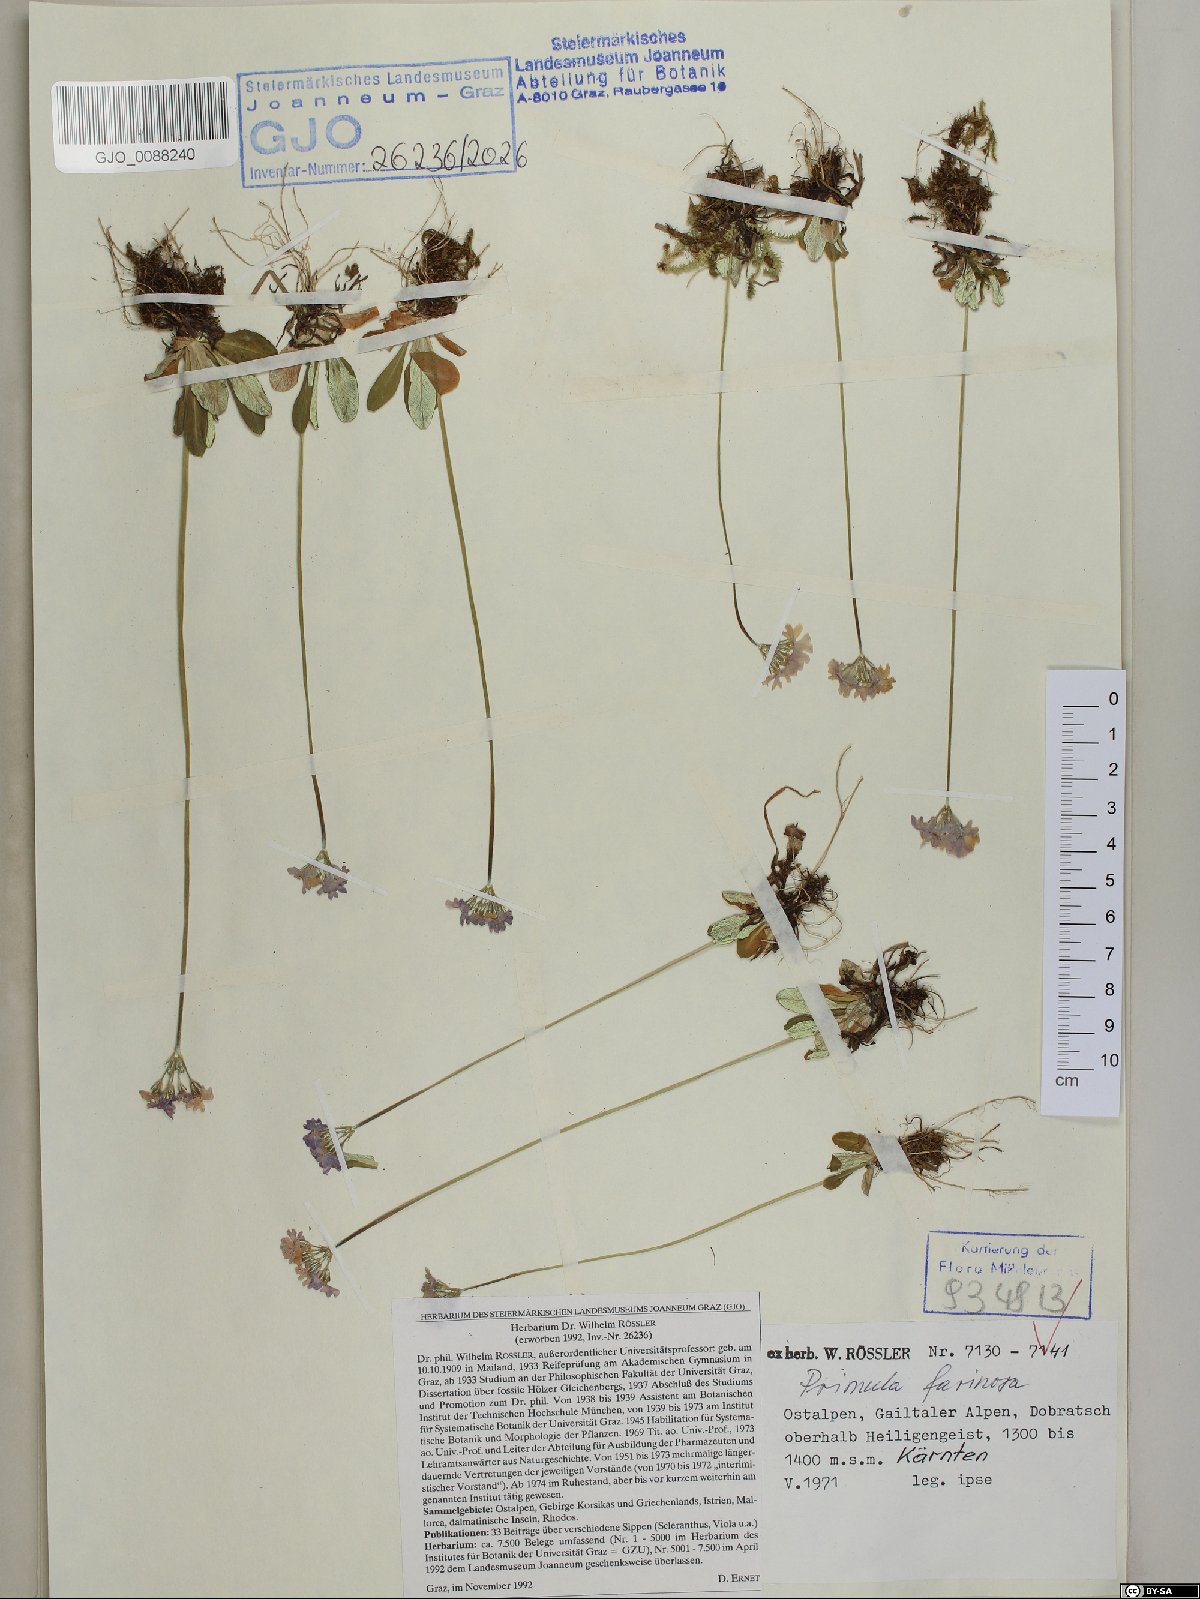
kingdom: Plantae
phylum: Tracheophyta
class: Magnoliopsida
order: Ericales
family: Primulaceae
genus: Primula
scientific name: Primula farinosa
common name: Bird's-eye primrose
